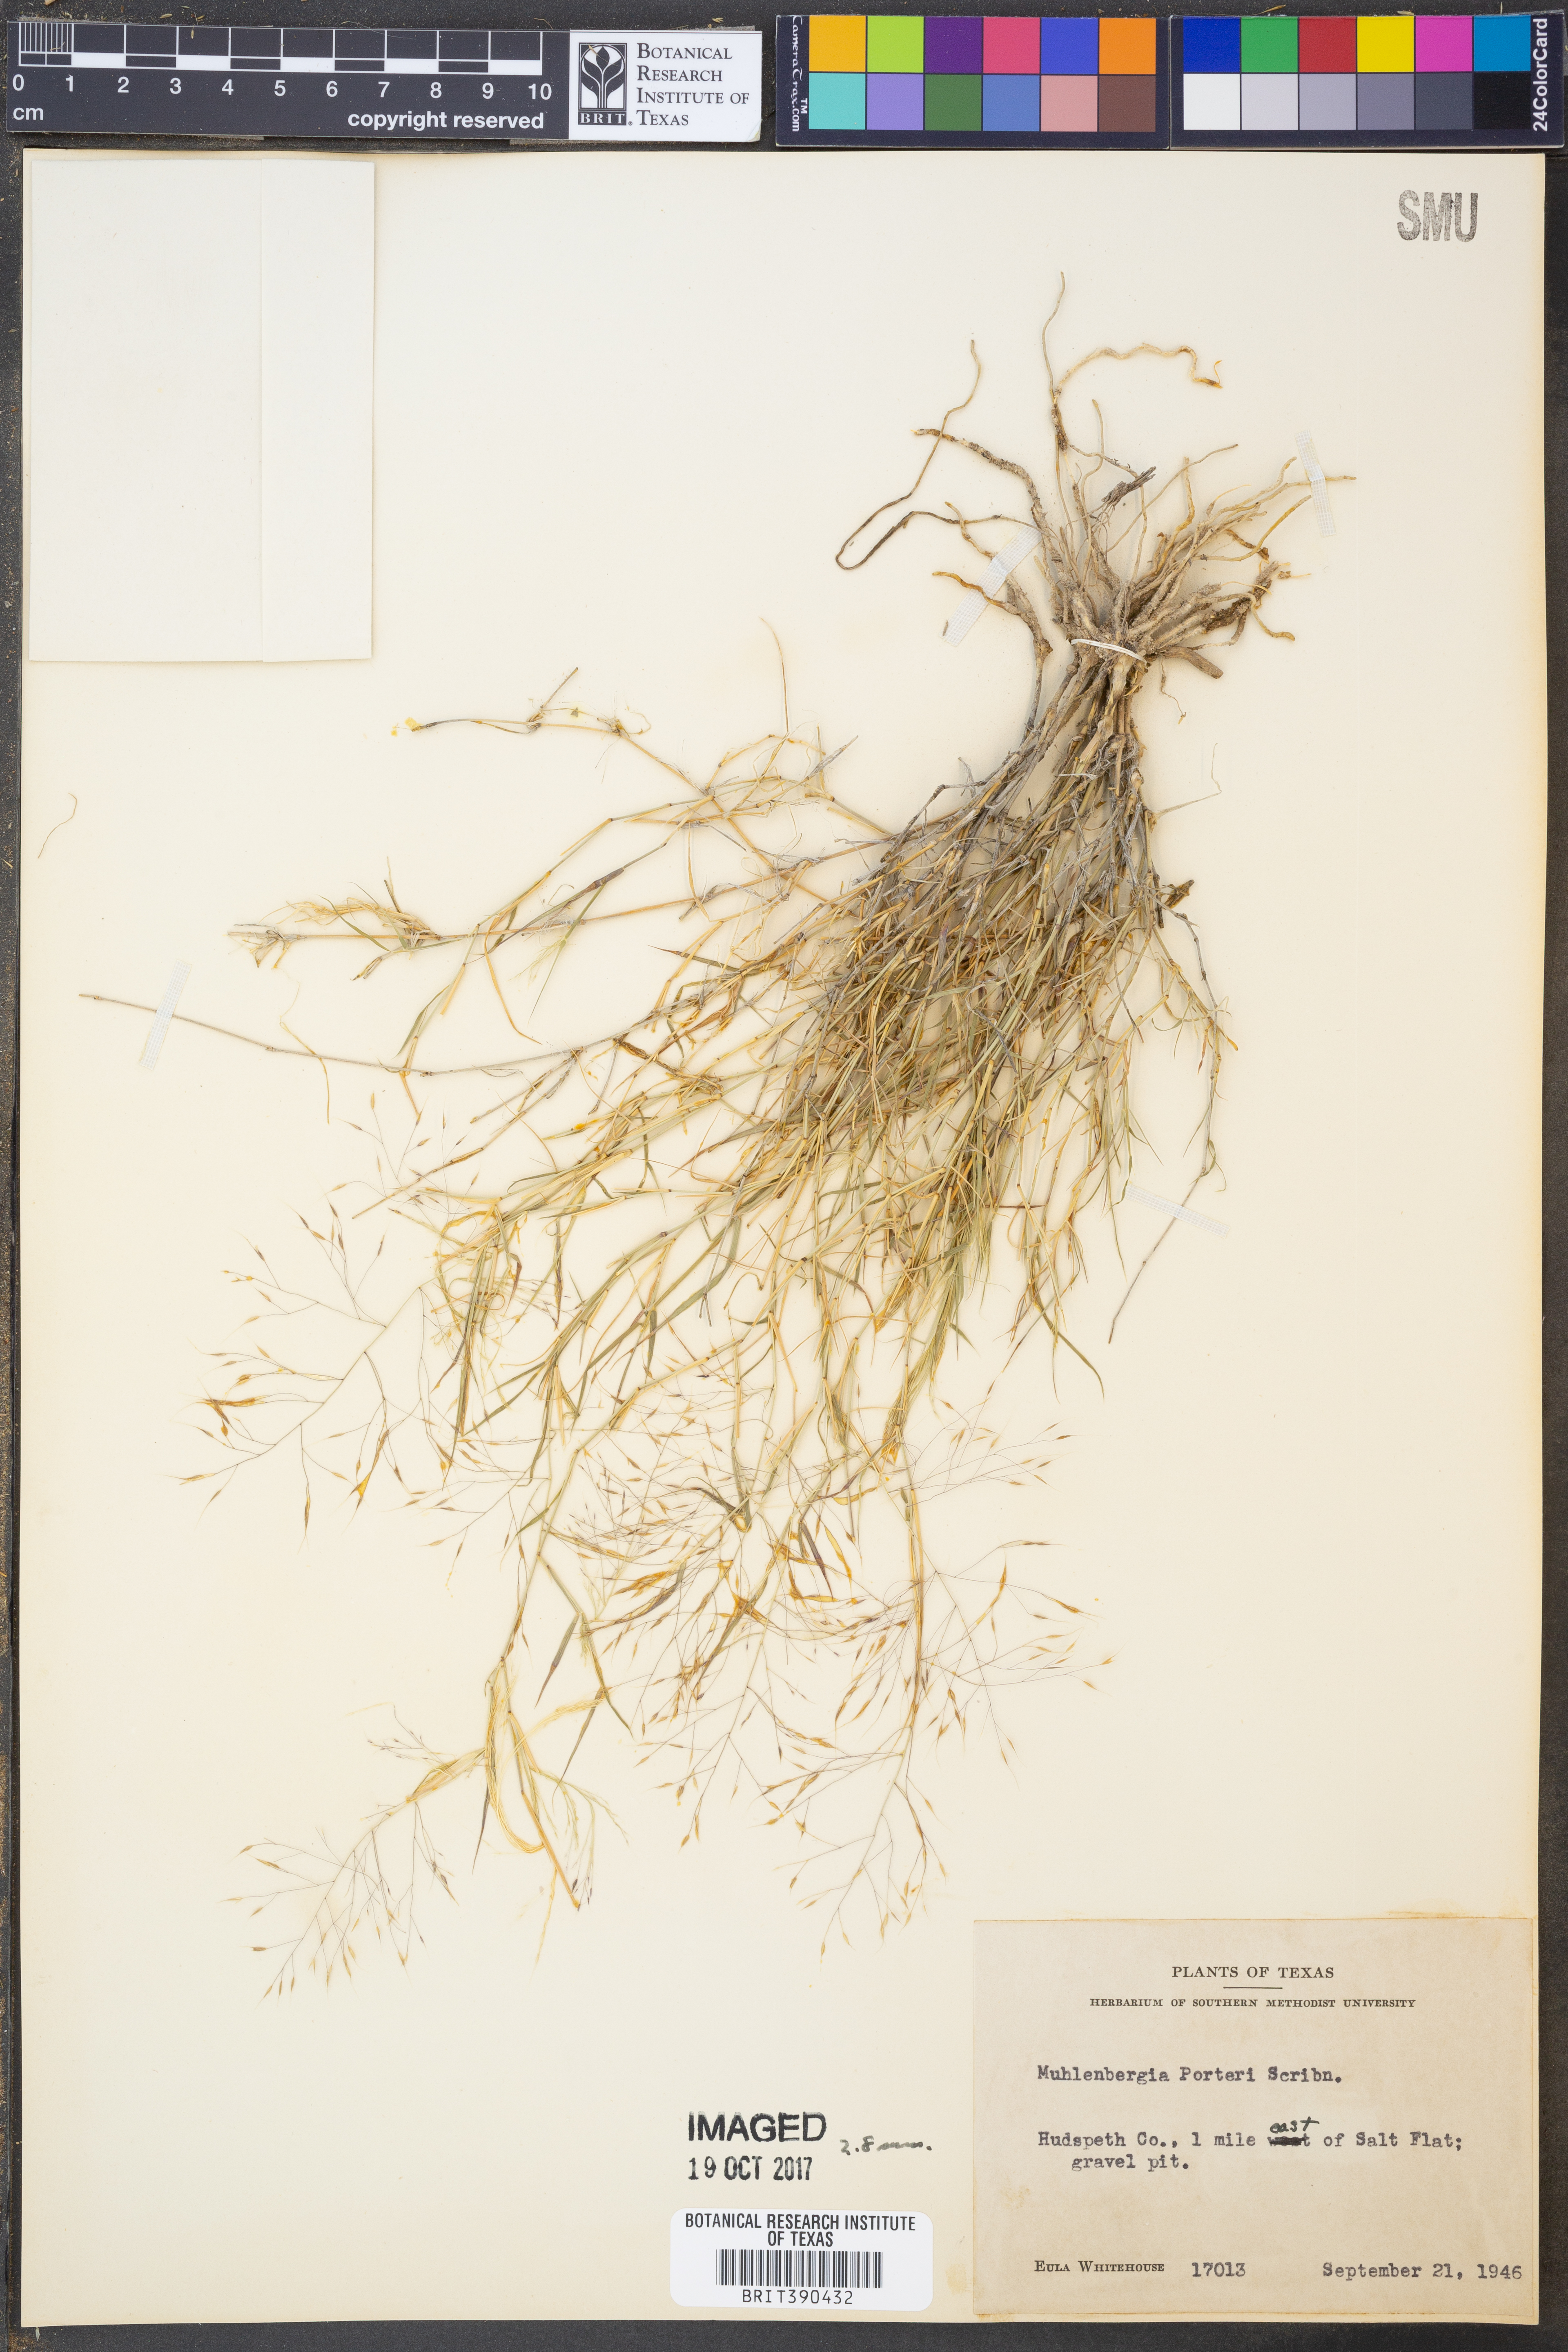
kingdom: Plantae
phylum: Tracheophyta
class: Liliopsida
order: Poales
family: Poaceae
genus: Muhlenbergia
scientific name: Muhlenbergia porteri
